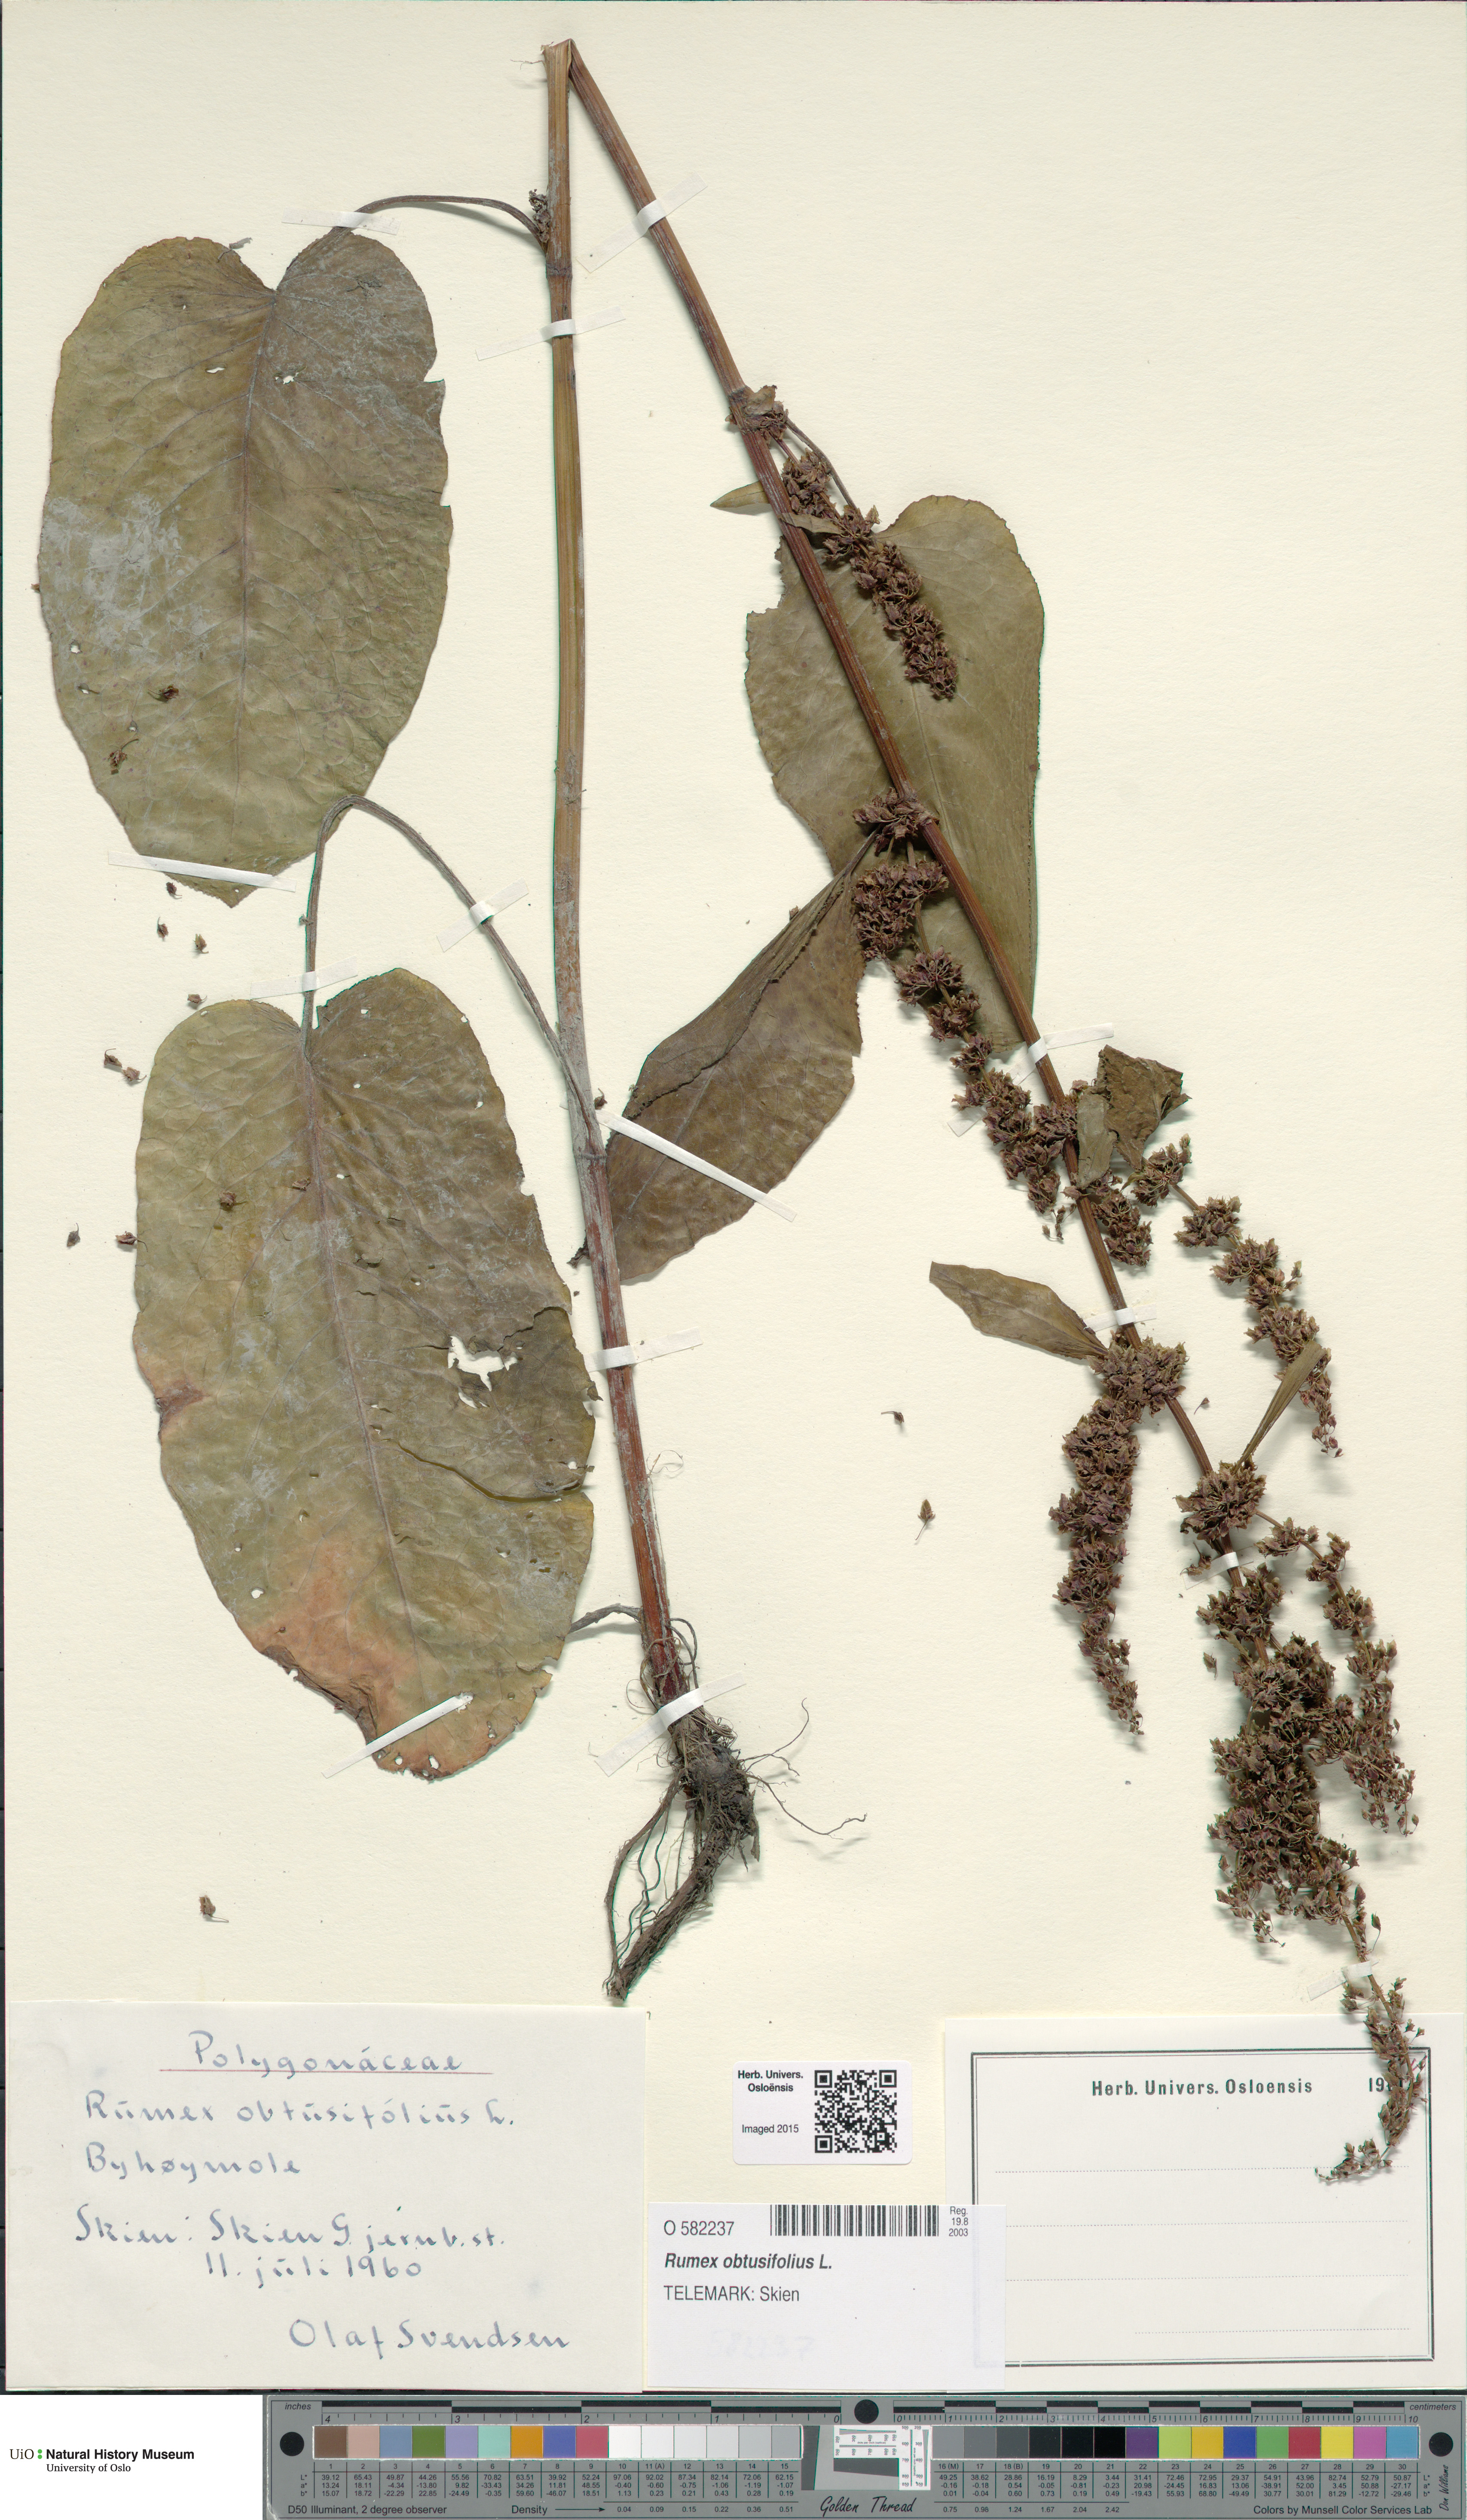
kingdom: Plantae
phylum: Tracheophyta
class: Magnoliopsida
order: Caryophyllales
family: Polygonaceae
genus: Rumex
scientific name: Rumex obtusifolius
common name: Bitter dock
